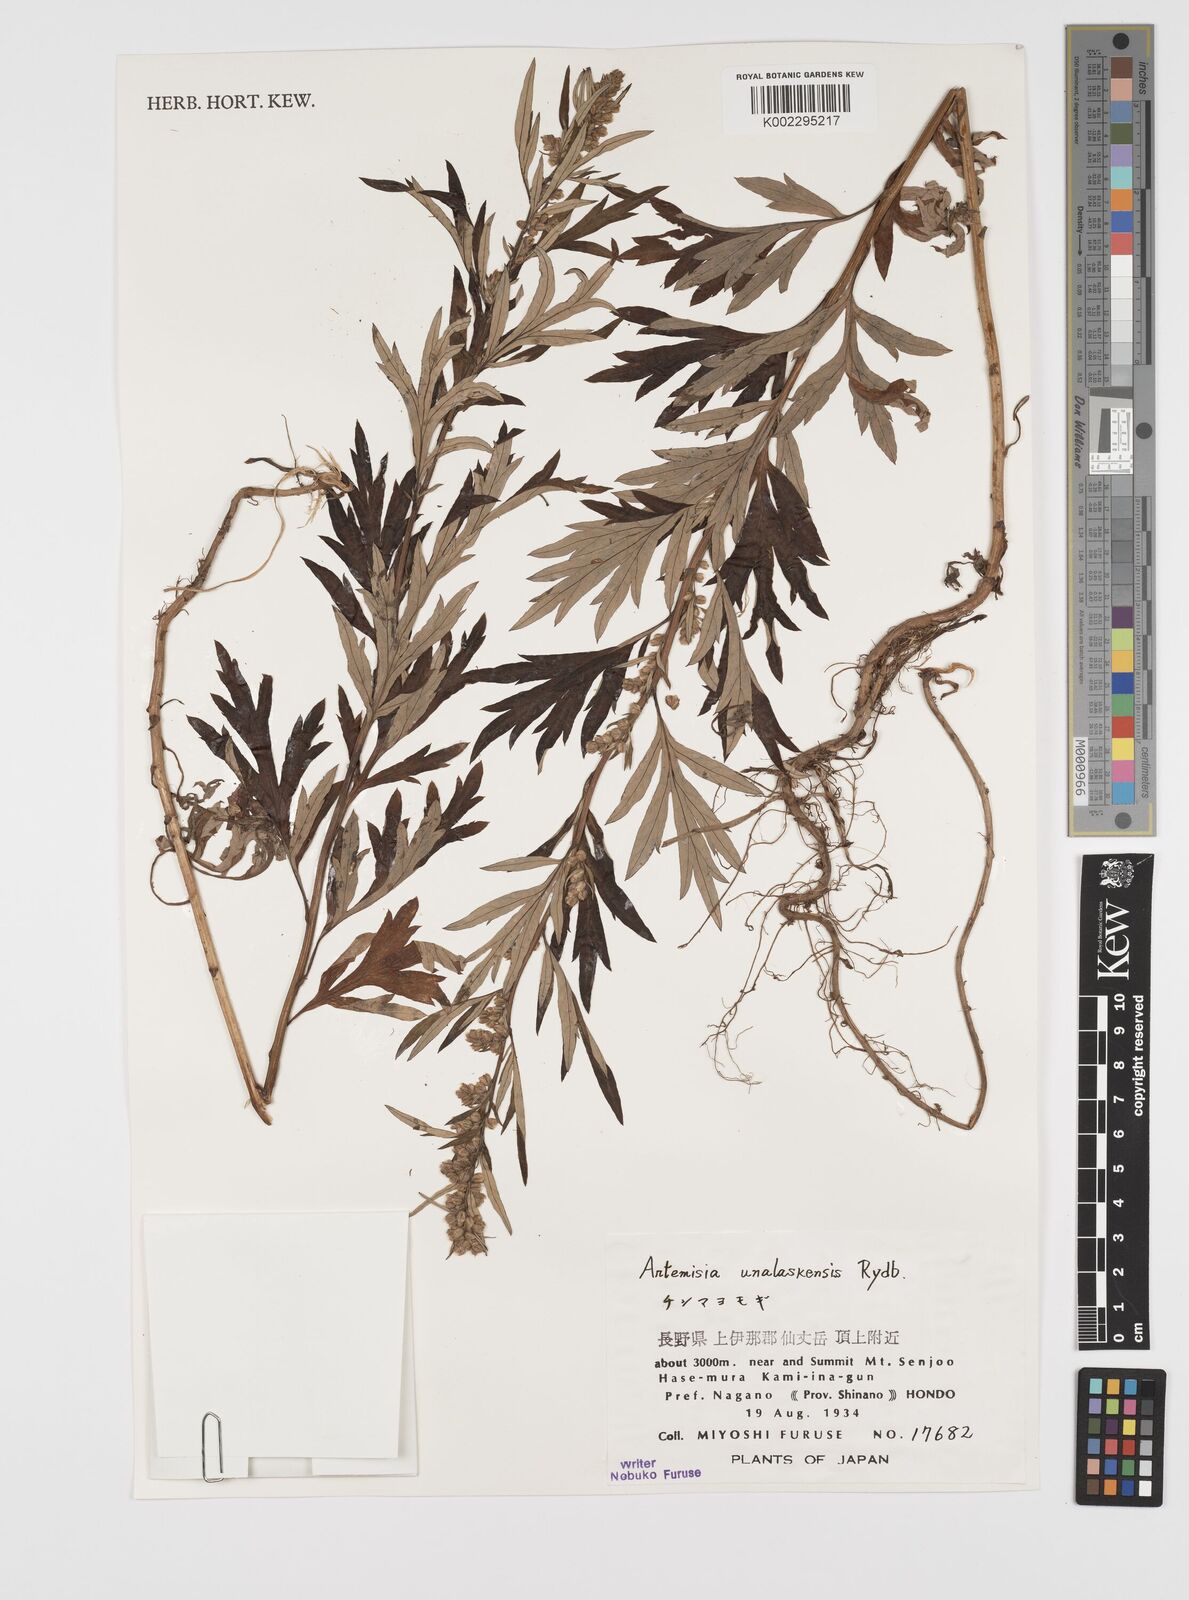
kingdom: Plantae
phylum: Tracheophyta
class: Magnoliopsida
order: Asterales
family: Asteraceae
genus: Artemisia
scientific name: Artemisia tilesii
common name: Aleutian mugwort
